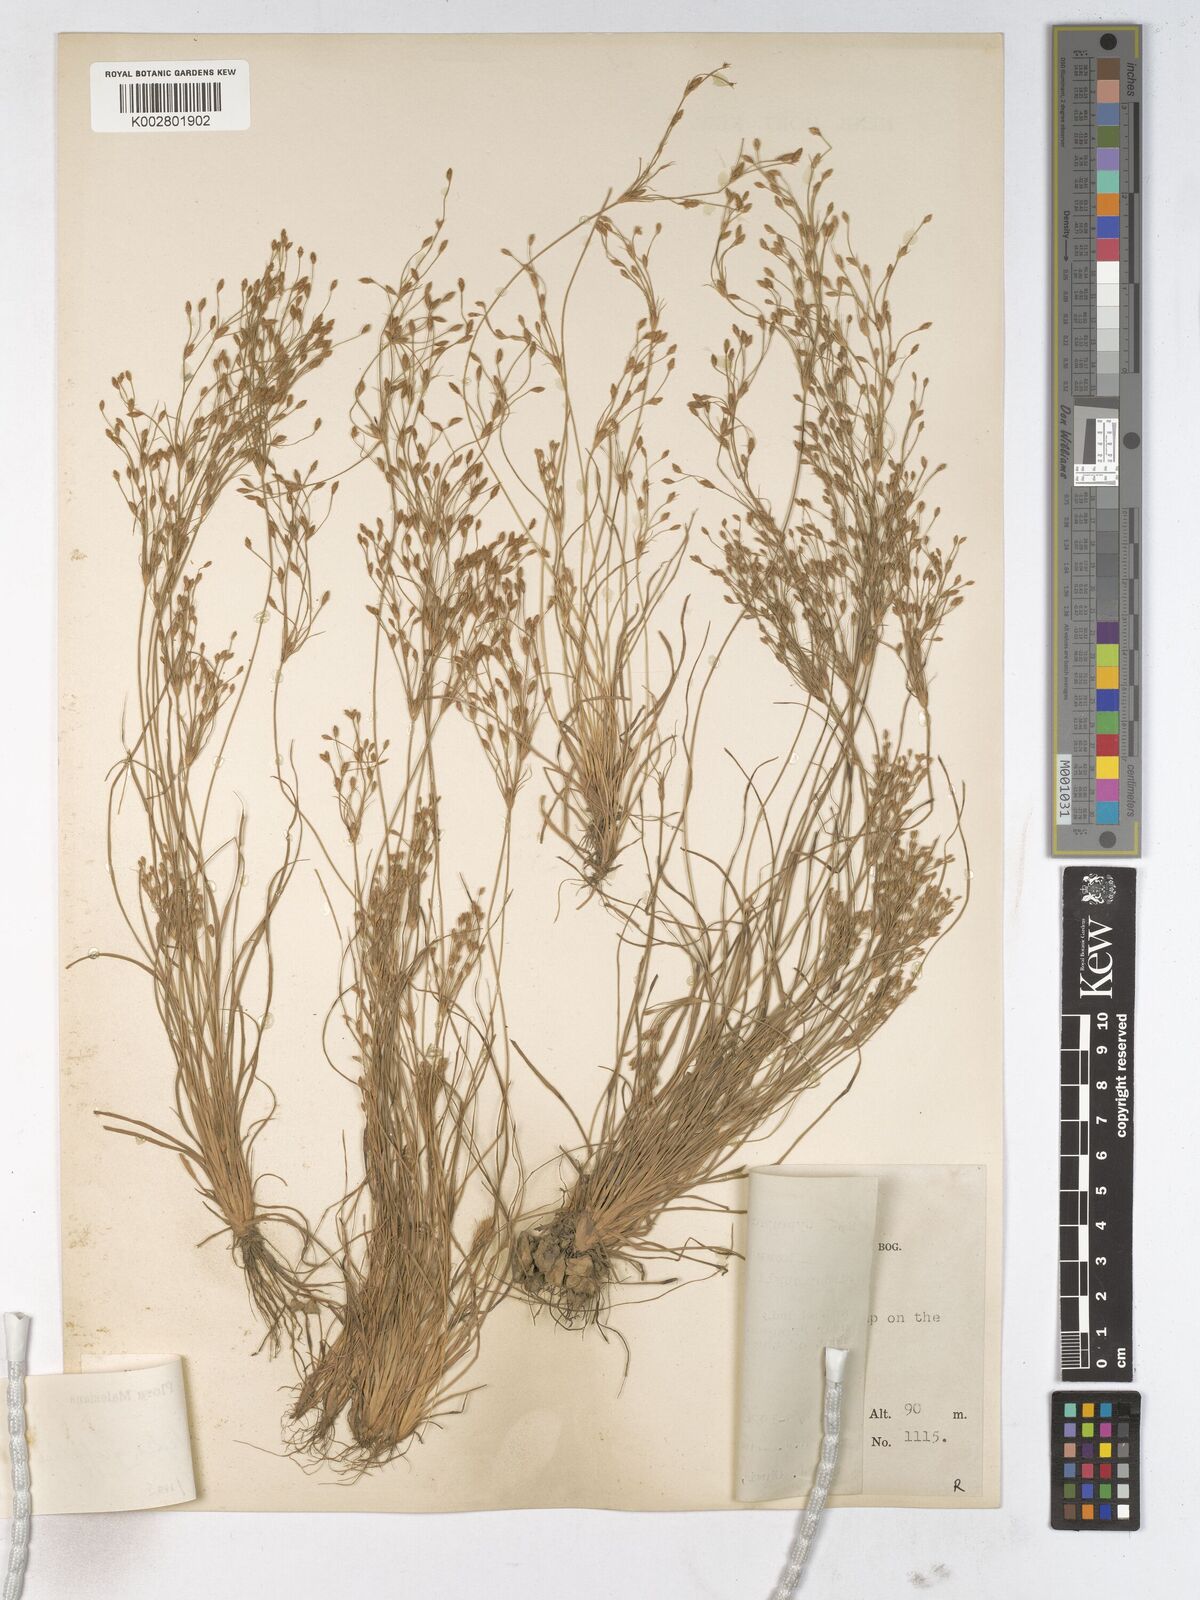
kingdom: Plantae
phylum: Tracheophyta
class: Liliopsida
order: Poales
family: Cyperaceae
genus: Fimbristylis
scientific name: Fimbristylis griffithii
